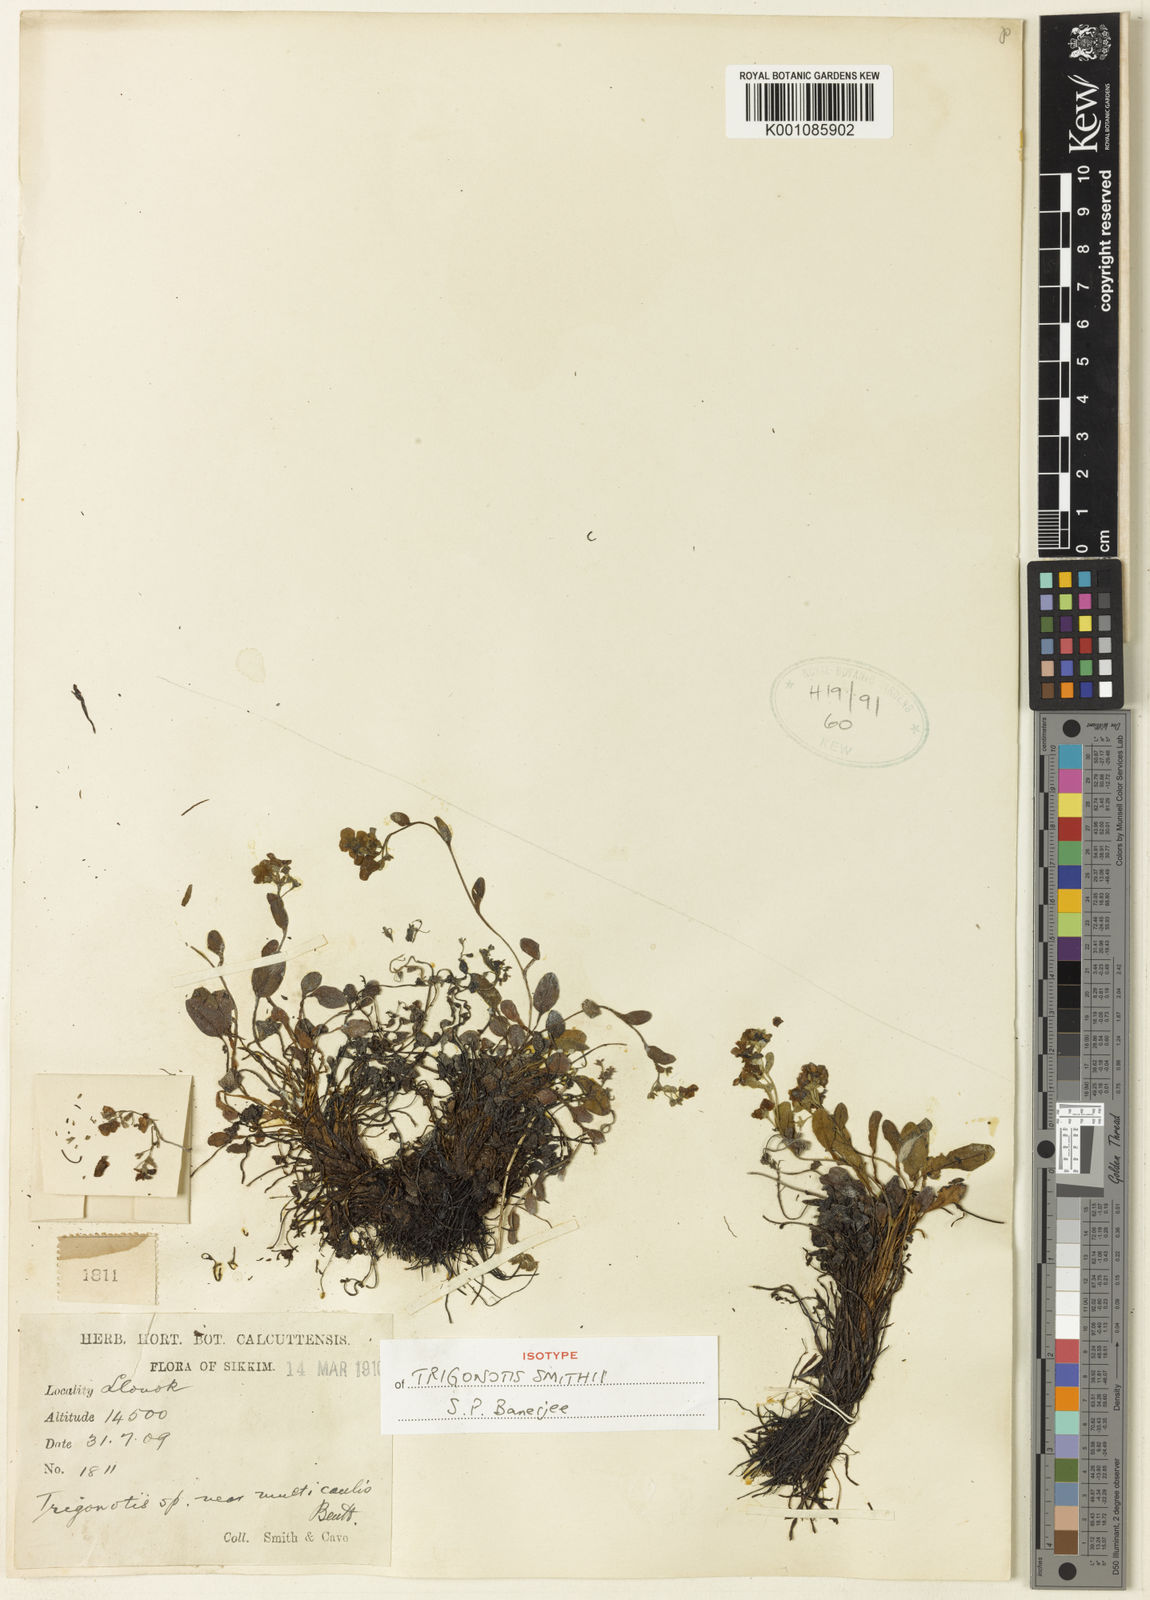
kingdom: Plantae
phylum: Tracheophyta
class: Magnoliopsida
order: Boraginales
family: Boraginaceae
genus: Trigonotis
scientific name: Trigonotis smithii
